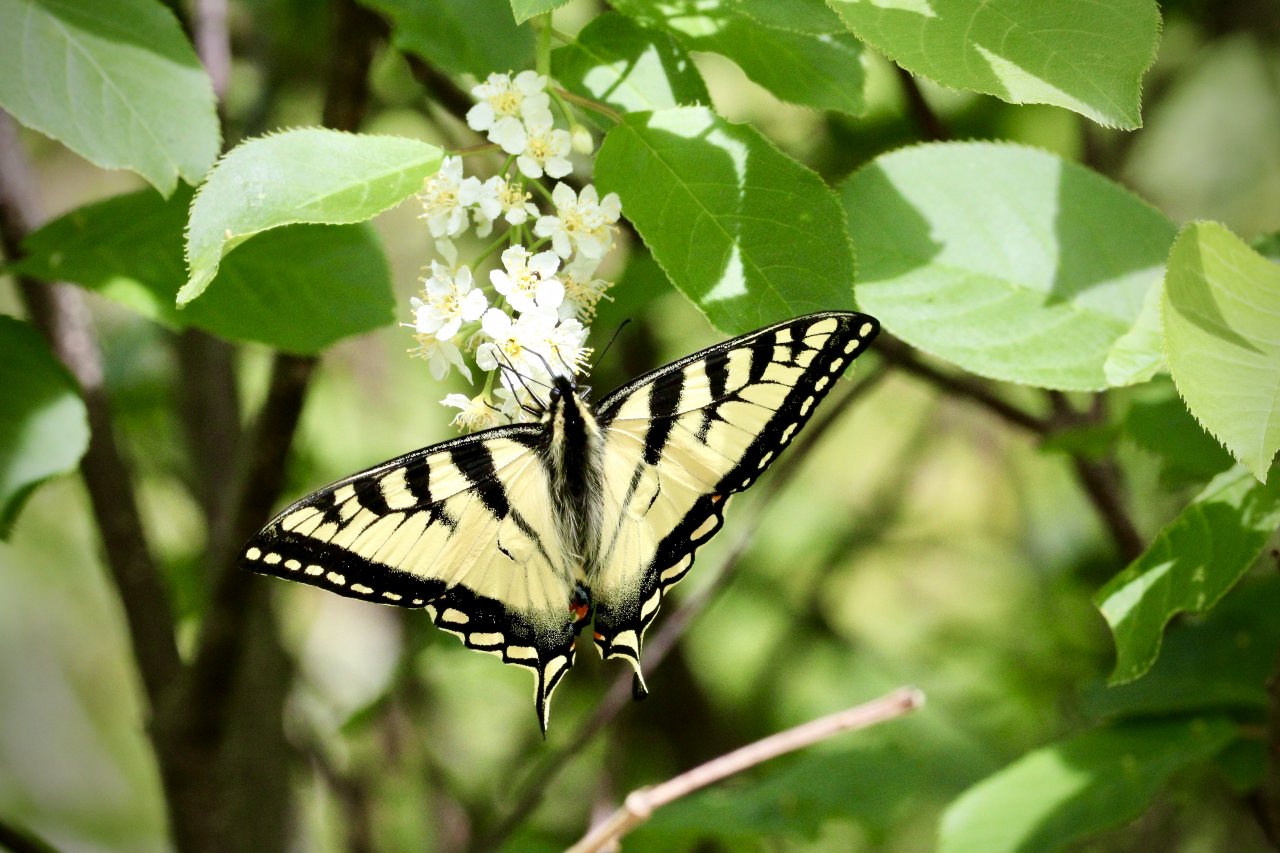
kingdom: Animalia
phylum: Arthropoda
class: Insecta
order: Lepidoptera
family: Papilionidae
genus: Pterourus
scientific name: Pterourus canadensis
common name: Canadian Tiger Swallowtail
